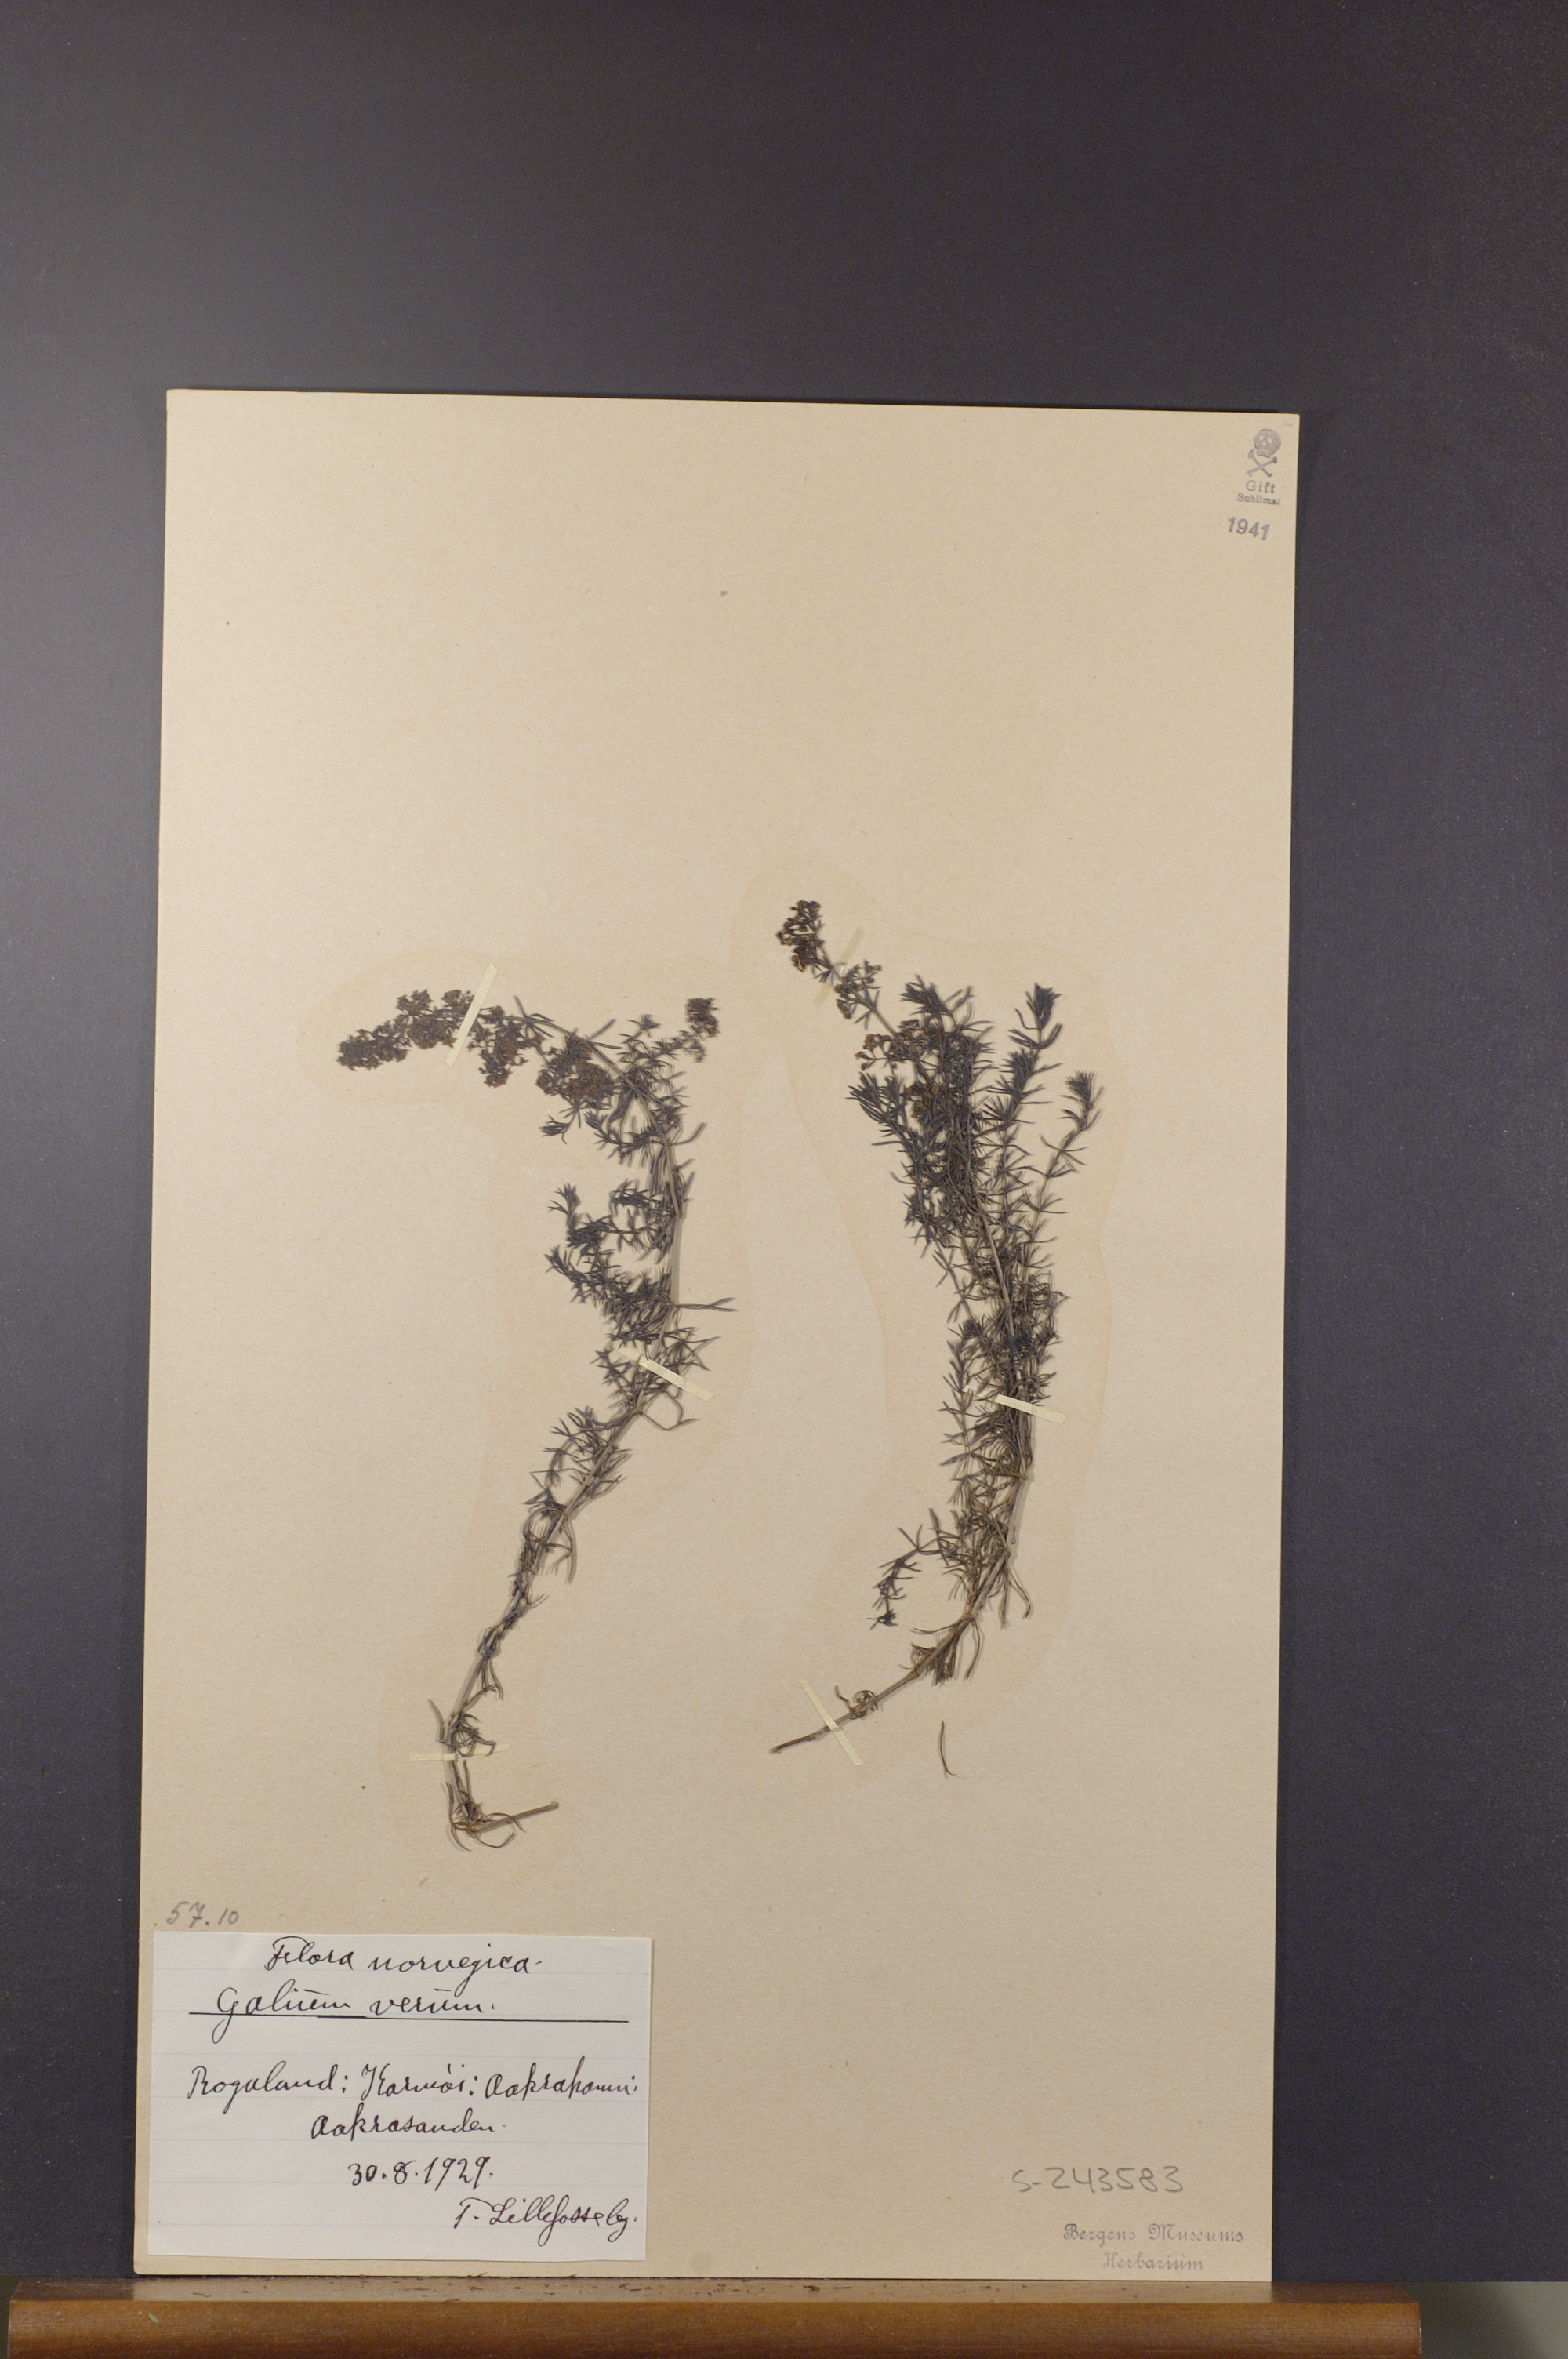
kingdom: Plantae
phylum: Tracheophyta
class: Magnoliopsida
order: Gentianales
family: Rubiaceae
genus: Galium
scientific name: Galium verum
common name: Lady's bedstraw
